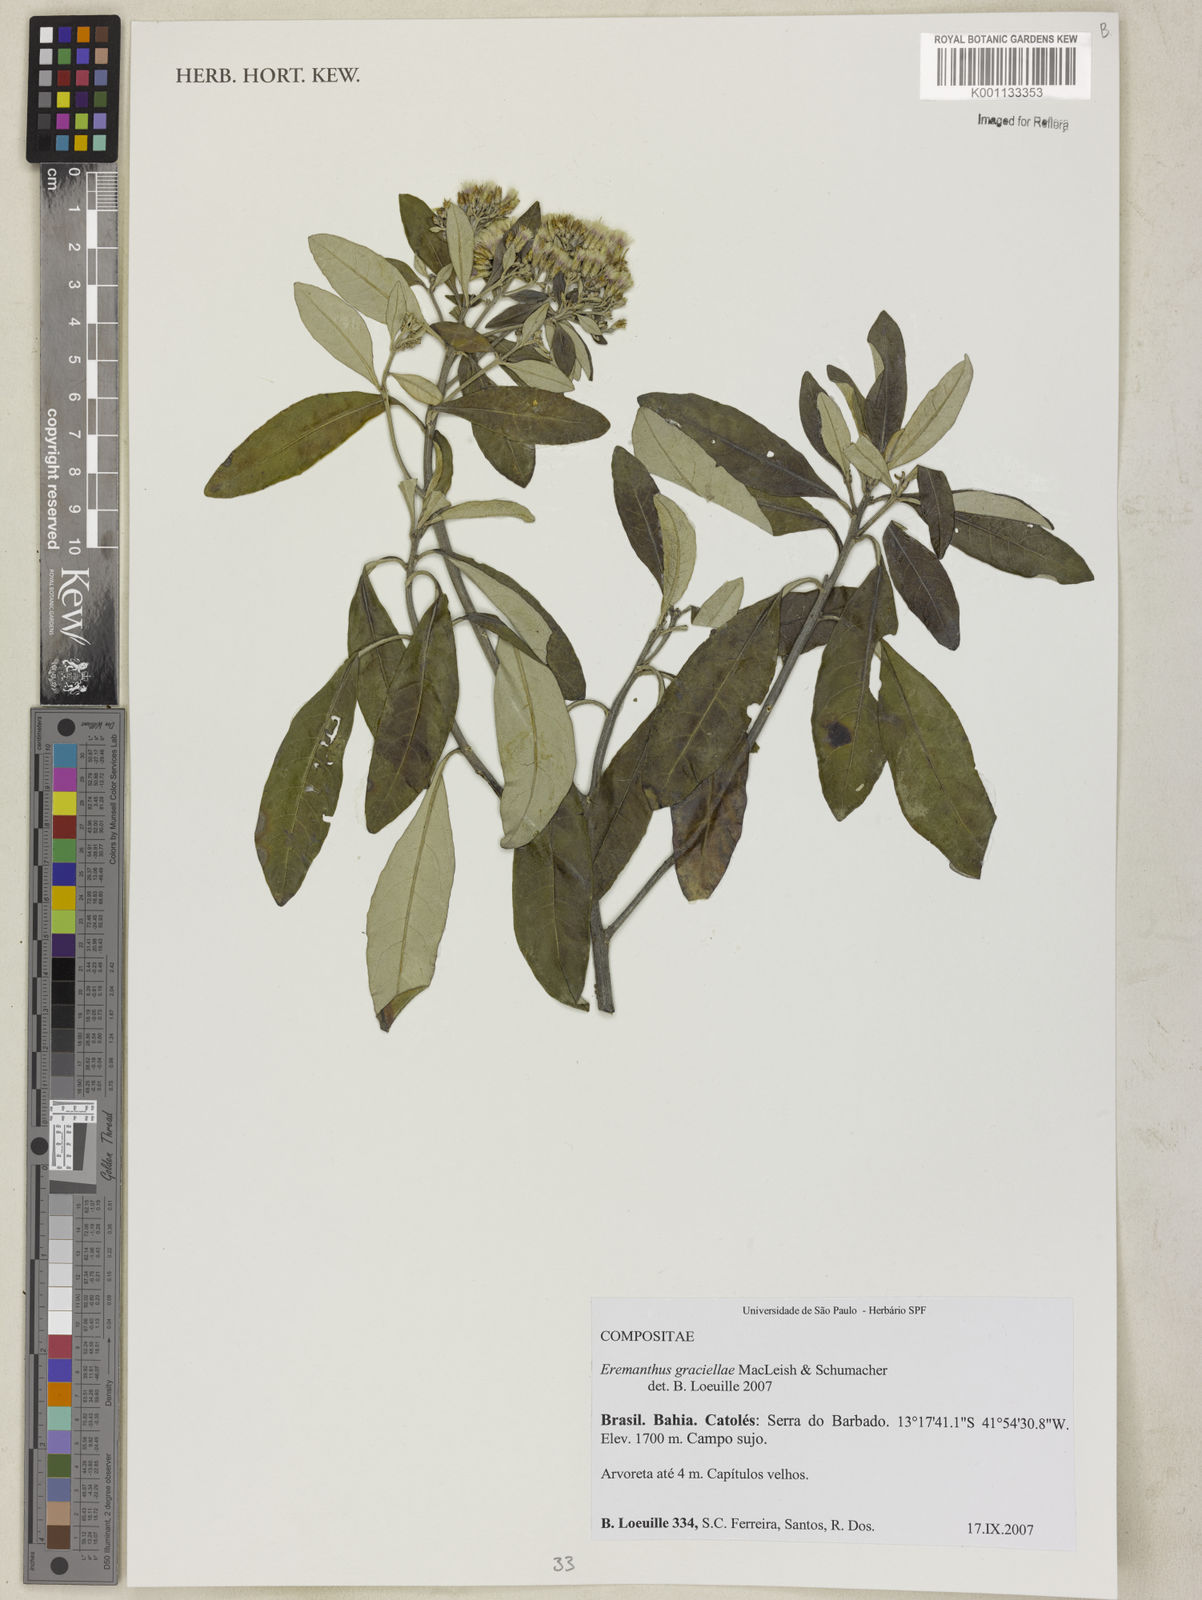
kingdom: Plantae
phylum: Tracheophyta
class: Magnoliopsida
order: Asterales
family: Asteraceae
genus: Eremanthus
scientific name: Eremanthus capitatus
